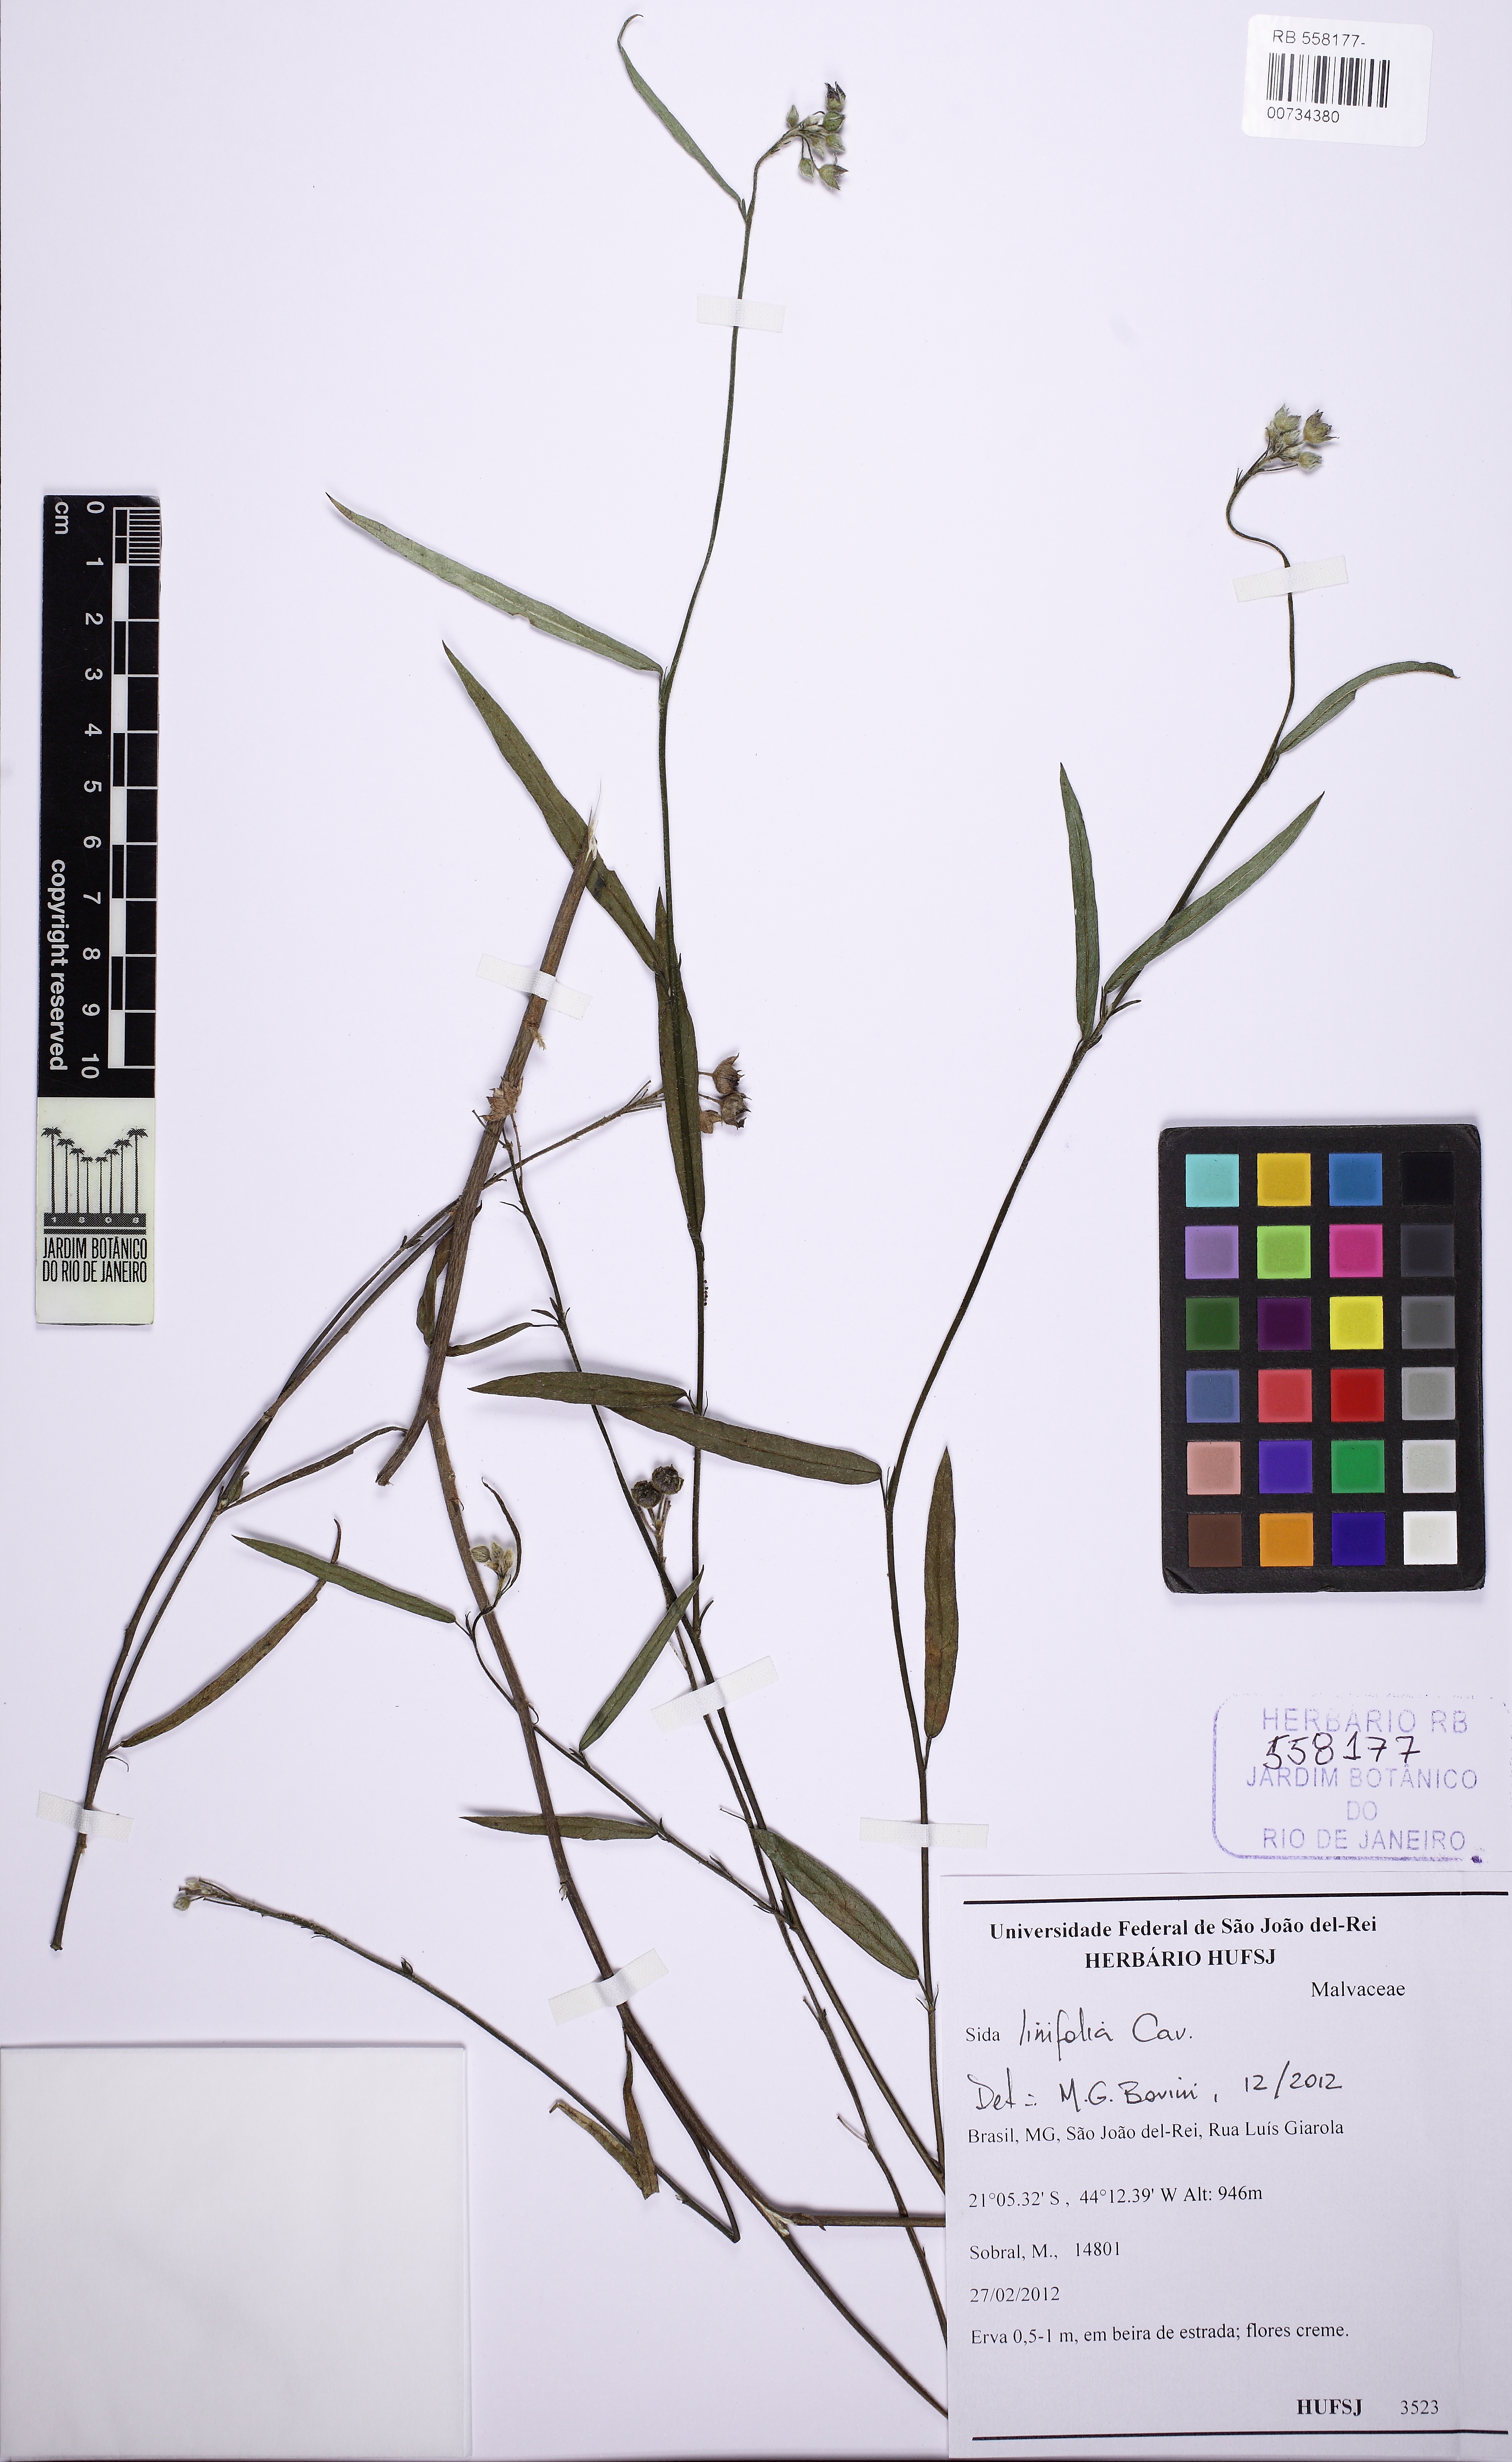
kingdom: Plantae
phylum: Tracheophyta
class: Magnoliopsida
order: Malvales
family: Malvaceae
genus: Sida
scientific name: Sida linifolia
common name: Flaxleaf fanpetals
